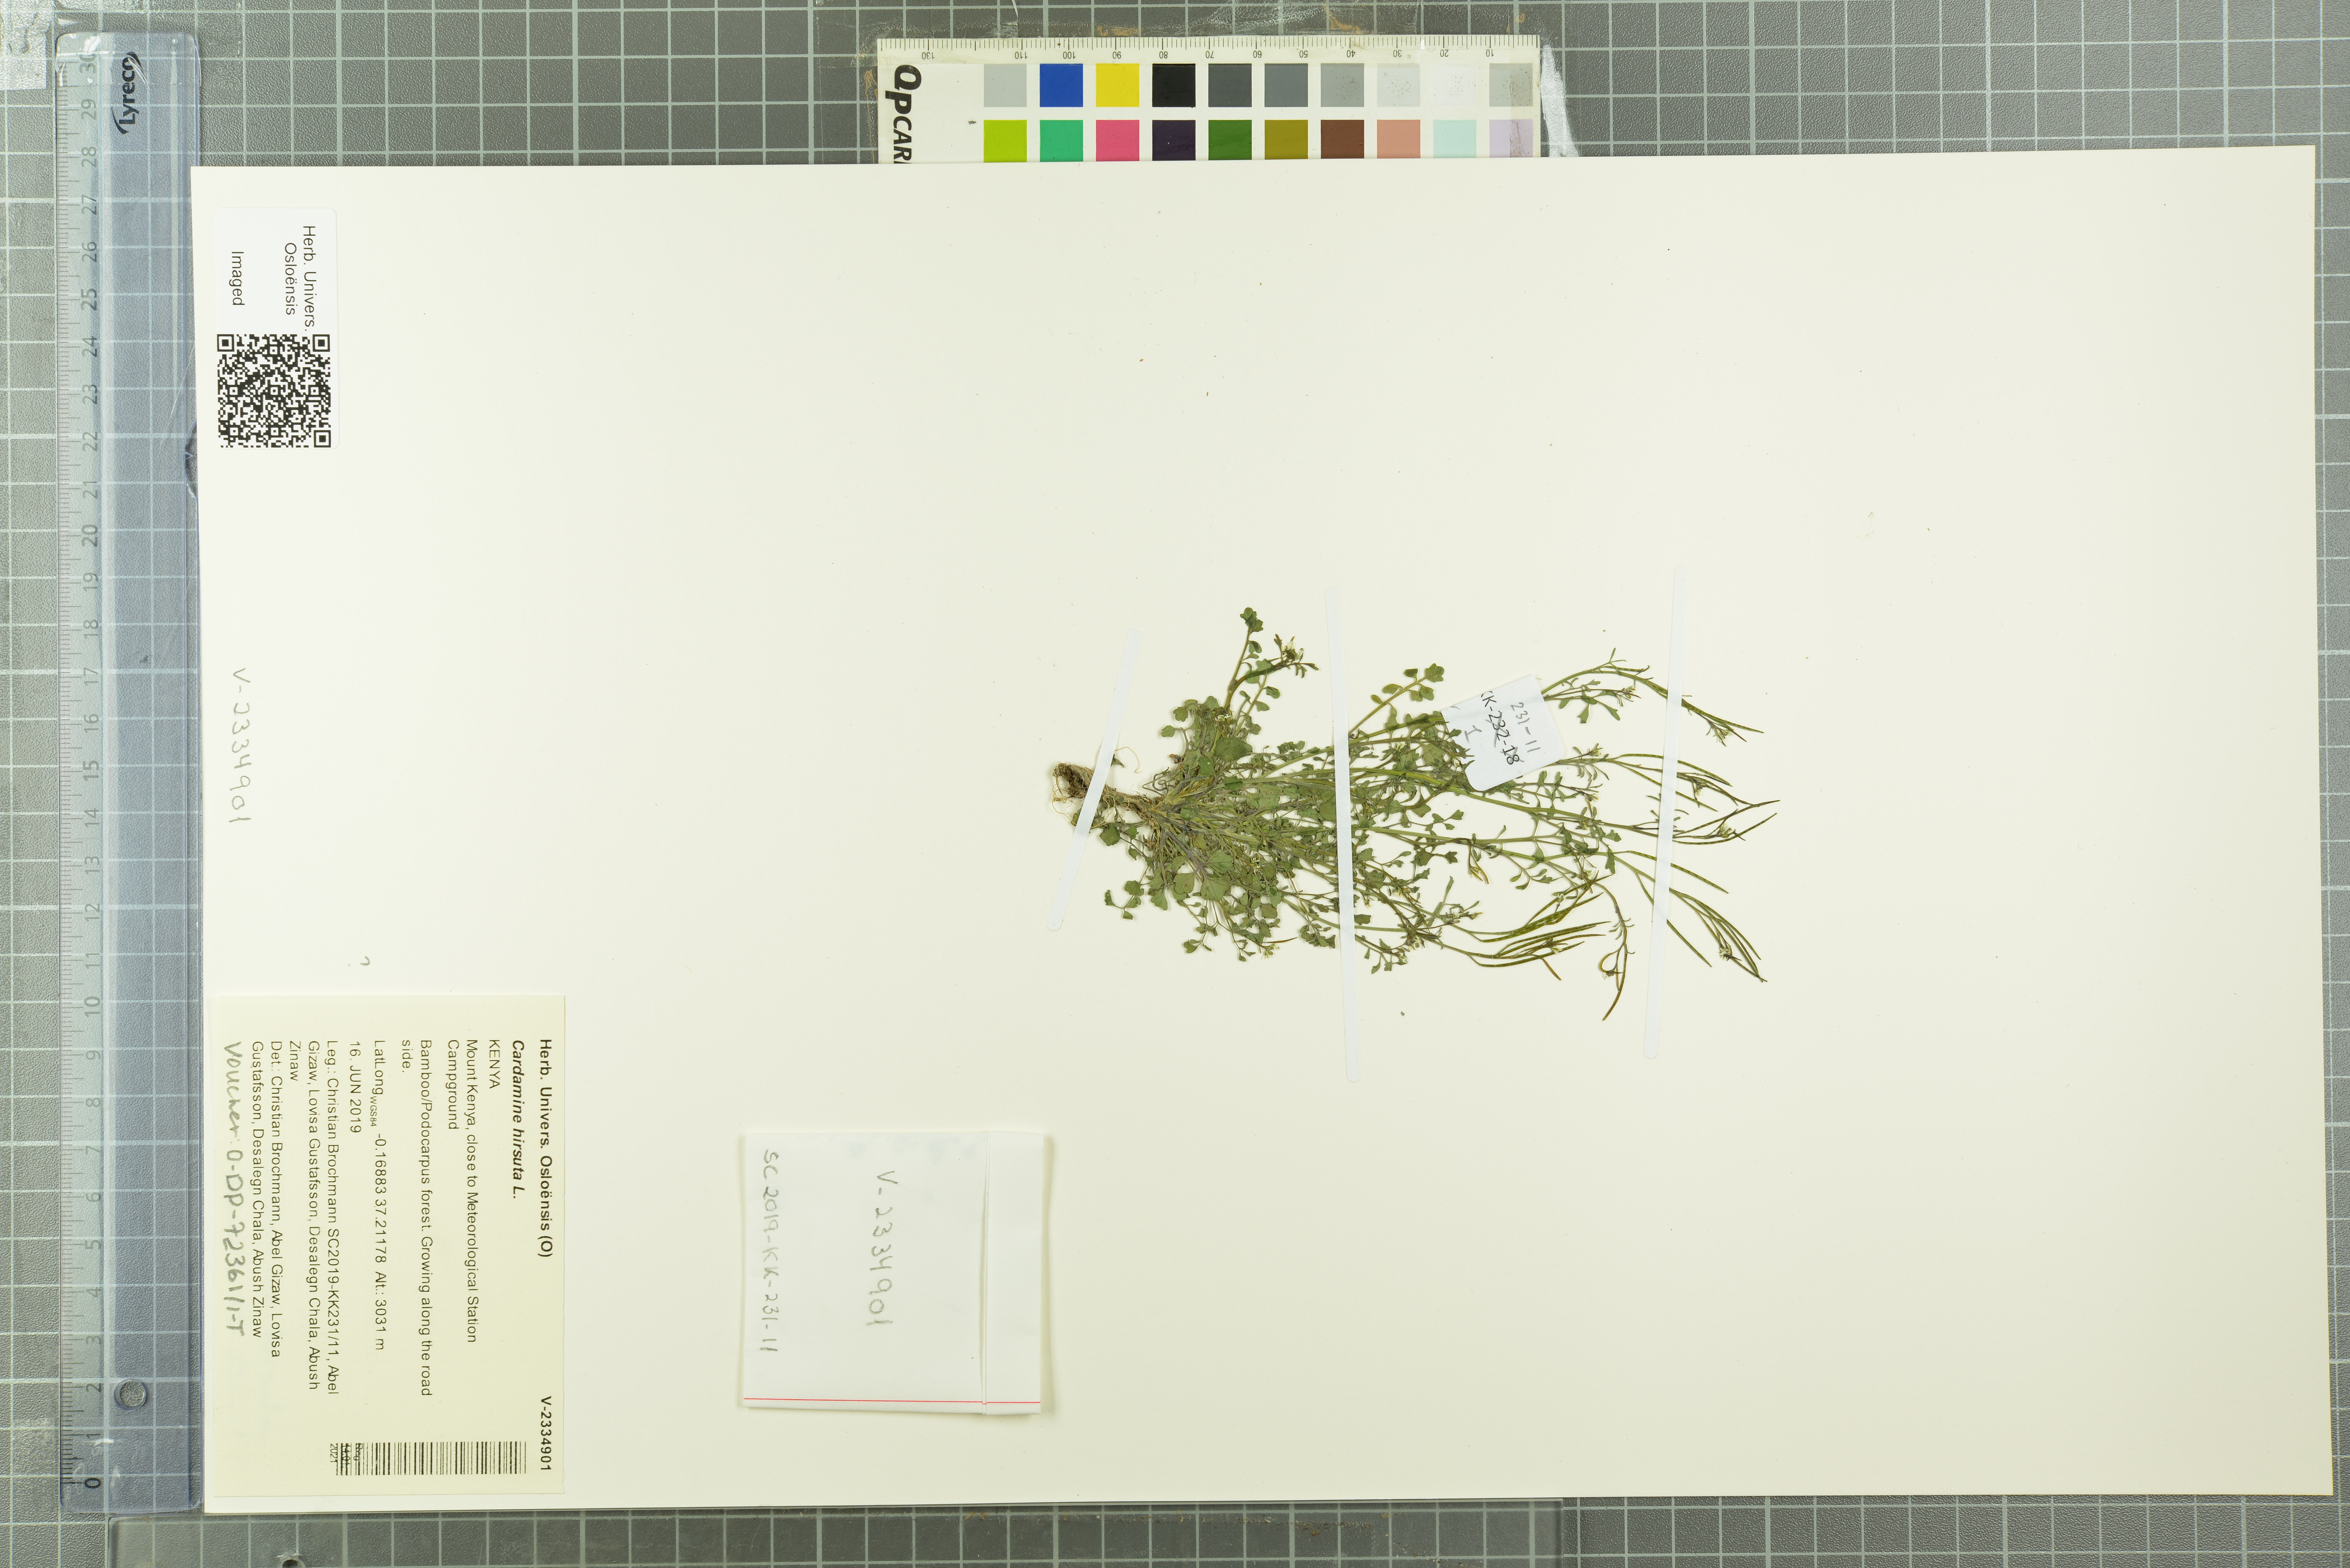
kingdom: Plantae
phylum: Tracheophyta
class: Magnoliopsida
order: Brassicales
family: Brassicaceae
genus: Cardamine
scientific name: Cardamine hirsuta
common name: Hairy bittercress
